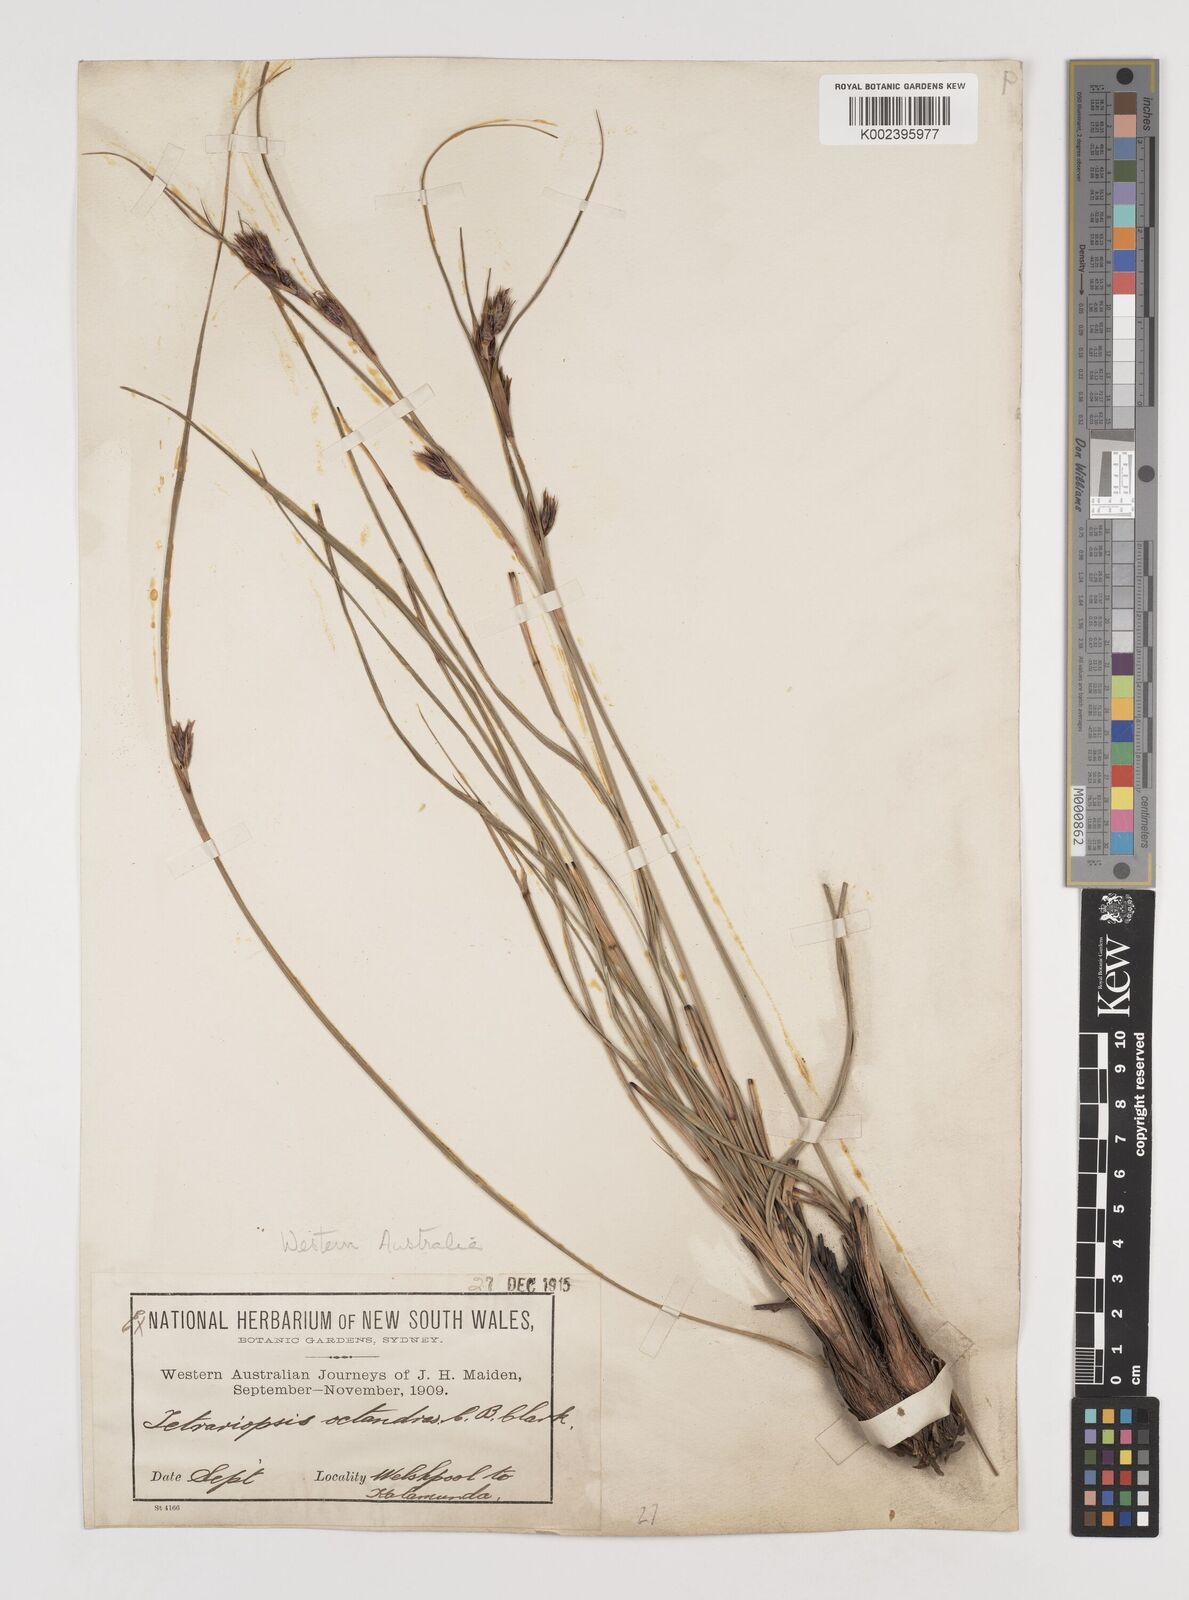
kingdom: Plantae
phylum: Tracheophyta
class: Liliopsida
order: Poales
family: Cyperaceae
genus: Tetraria
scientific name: Tetraria octandra
